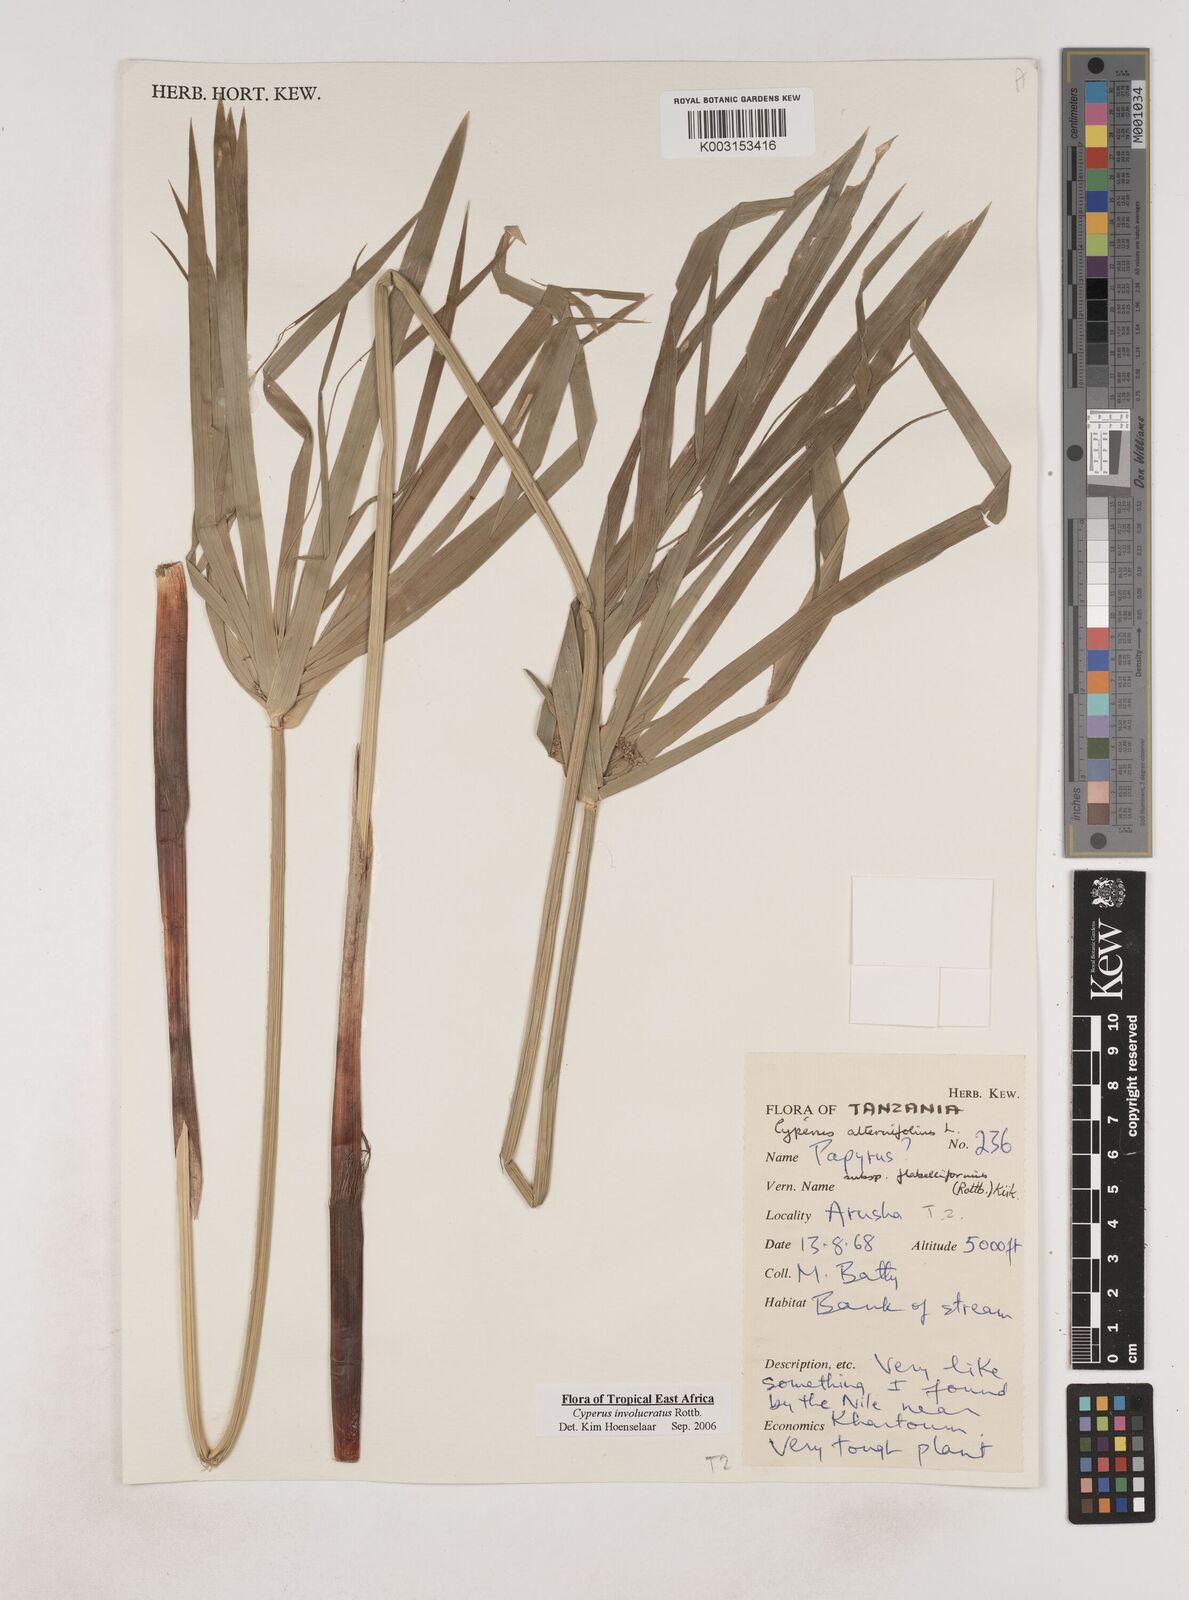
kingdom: Plantae
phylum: Tracheophyta
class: Liliopsida
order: Poales
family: Cyperaceae
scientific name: Cyperaceae
